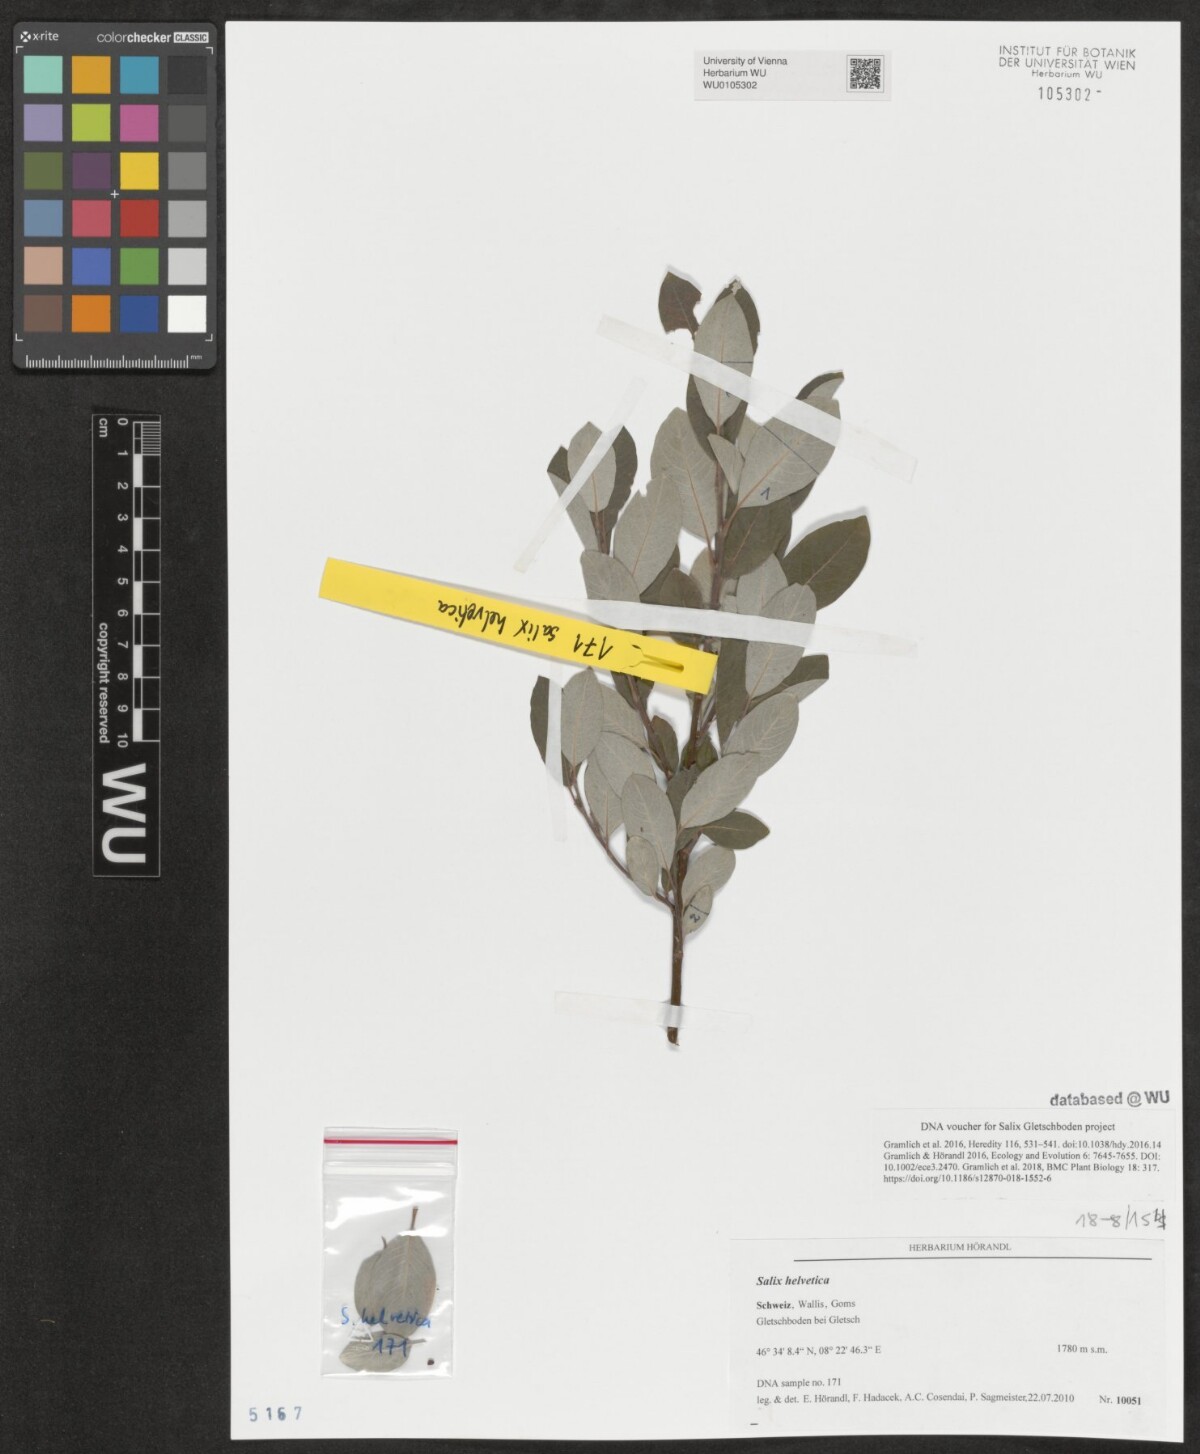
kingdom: Plantae
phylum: Tracheophyta
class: Magnoliopsida
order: Malpighiales
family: Salicaceae
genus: Salix
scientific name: Salix helvetica
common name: Swiss willow
